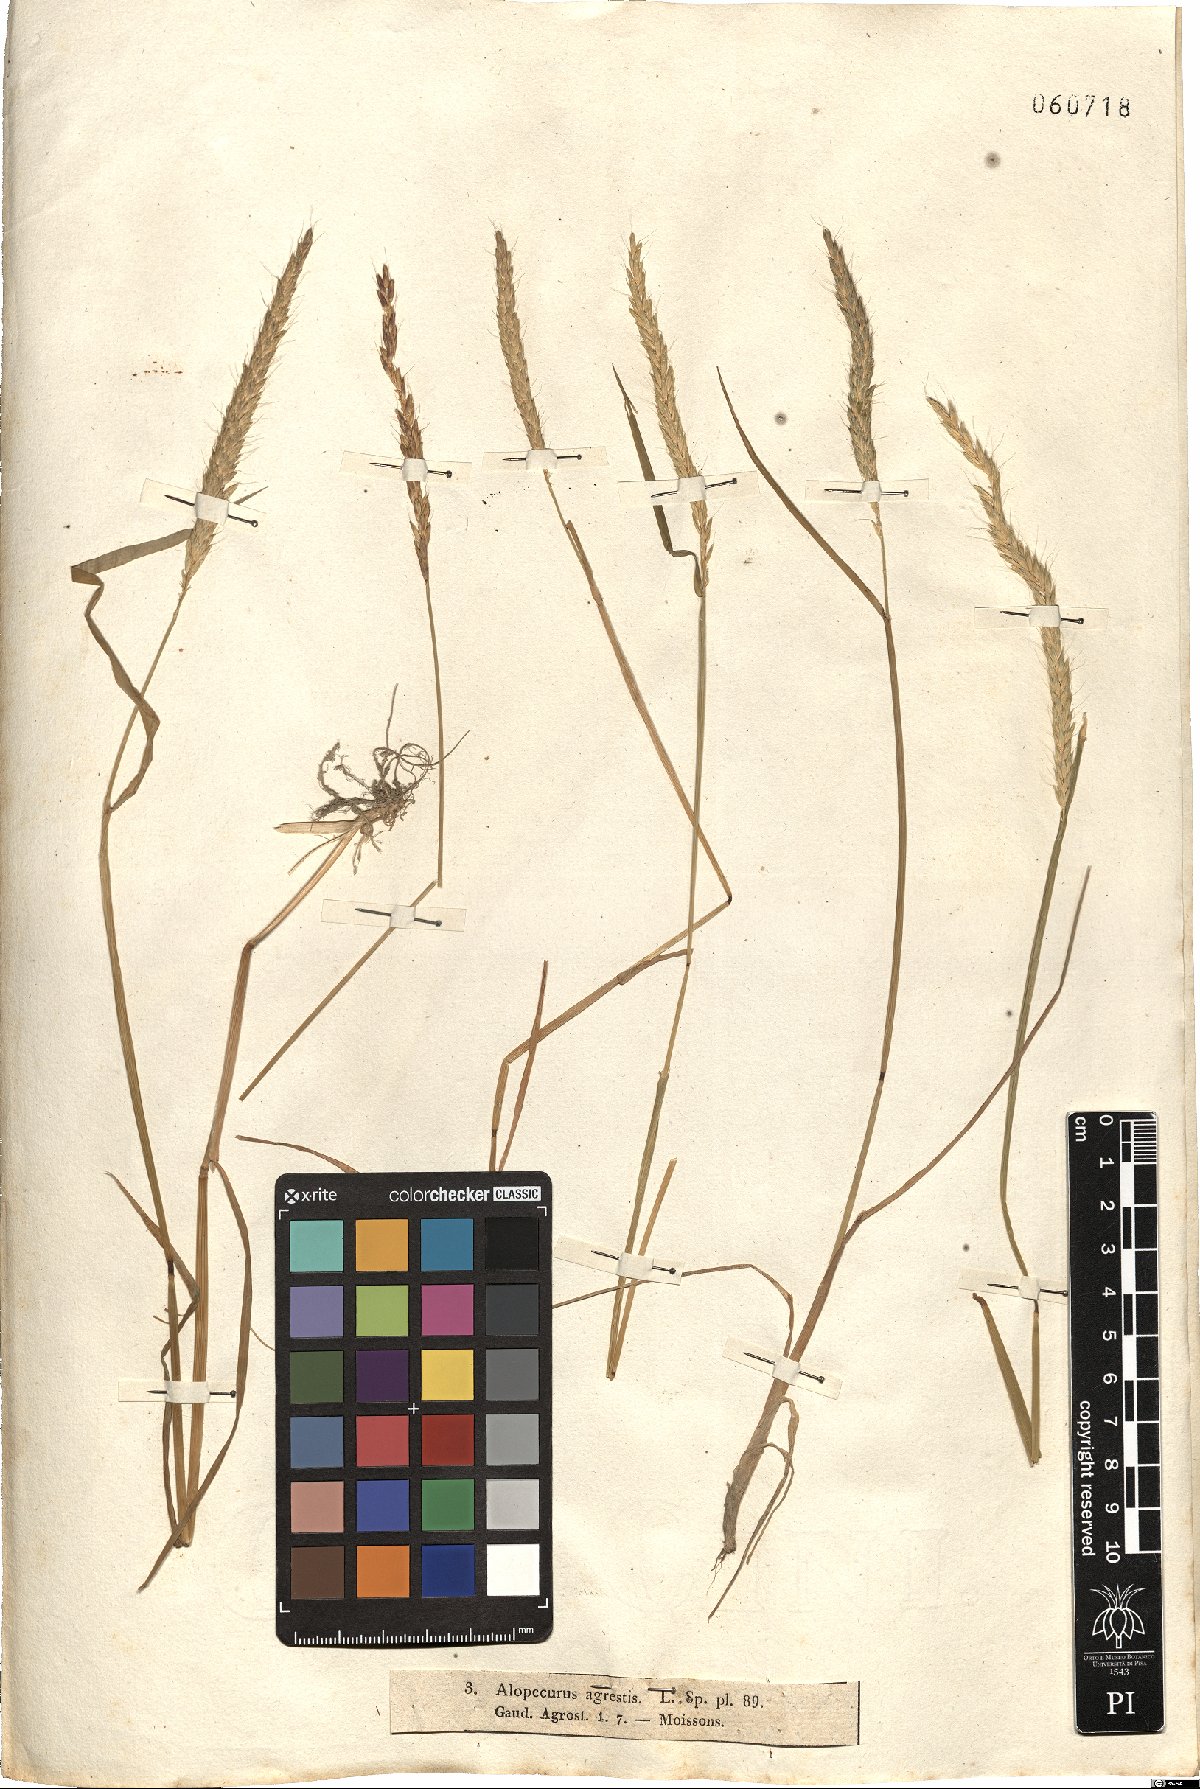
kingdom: Plantae
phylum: Tracheophyta
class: Liliopsida
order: Poales
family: Poaceae
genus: Alopecurus
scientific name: Alopecurus myosuroides
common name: Black-grass
